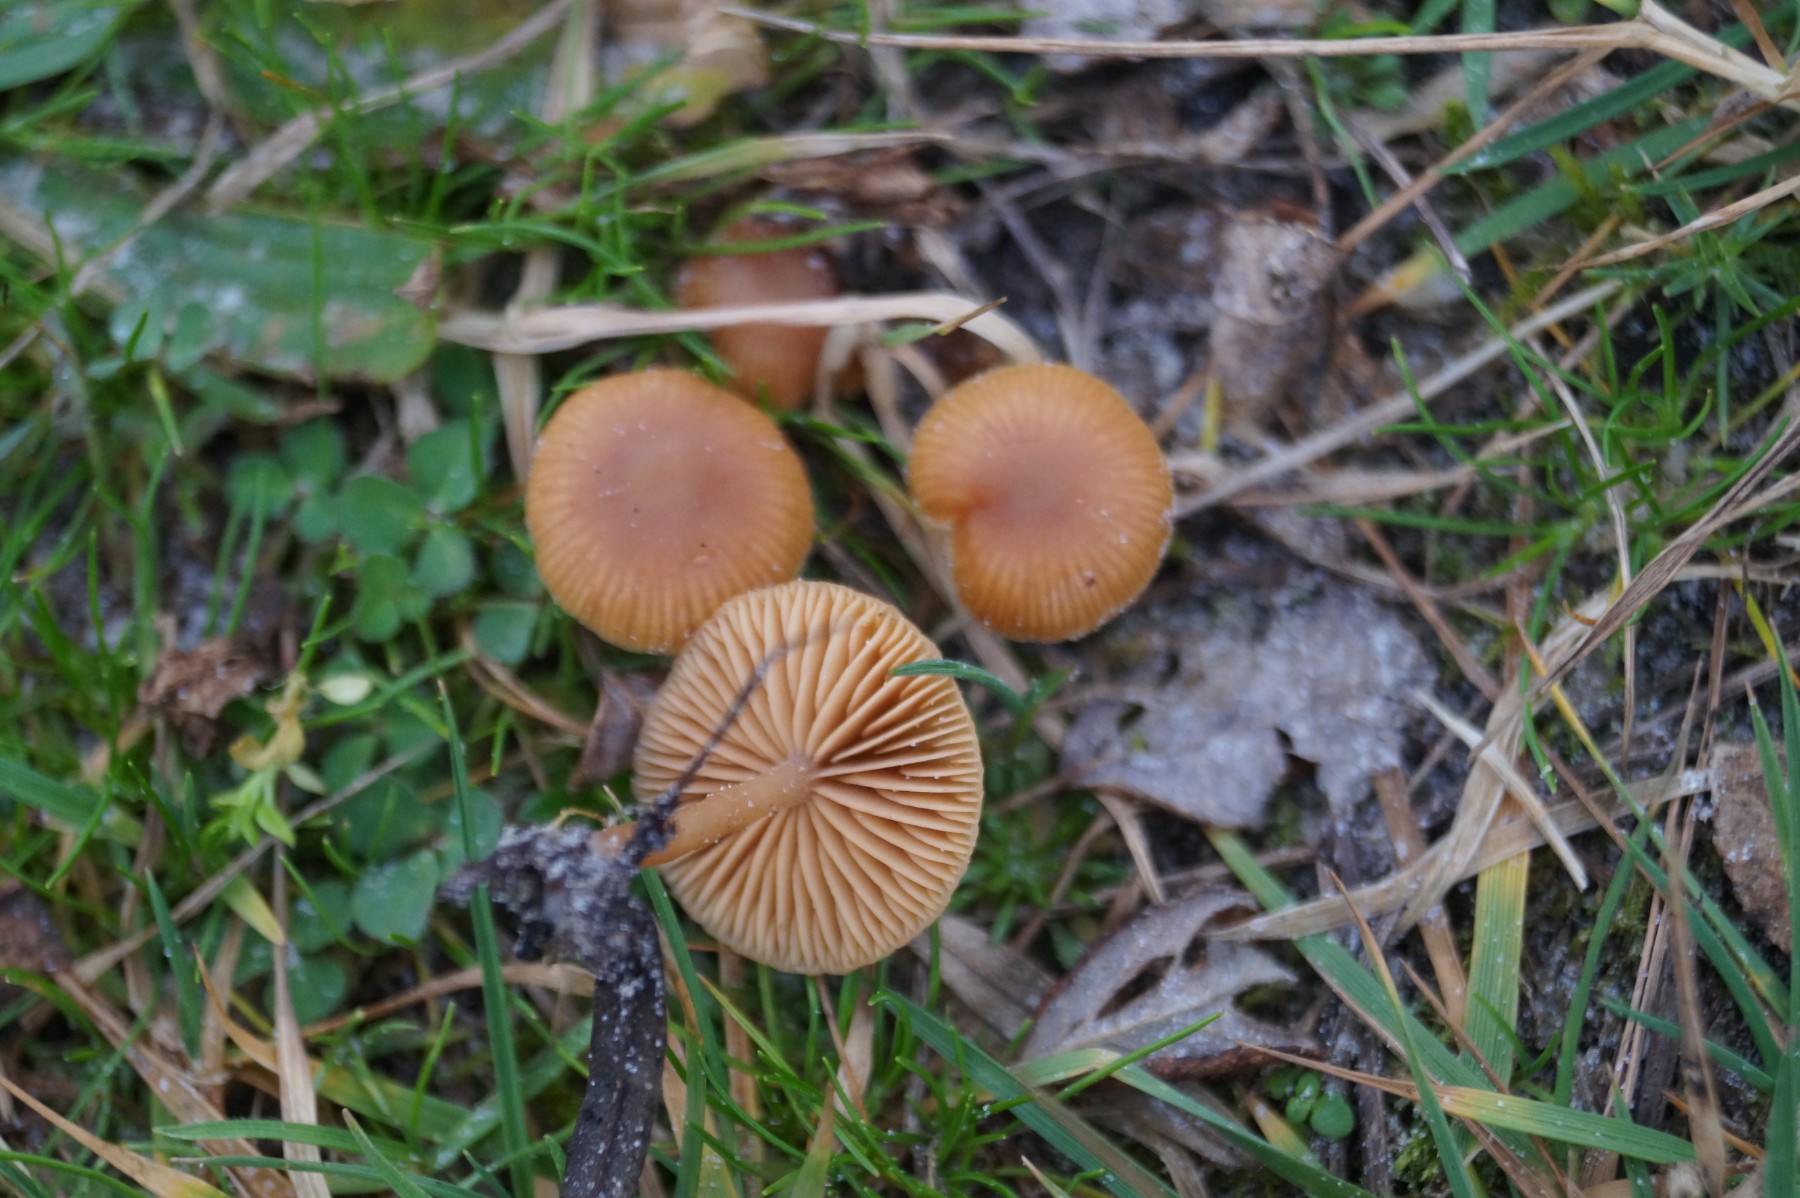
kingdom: Fungi
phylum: Basidiomycota
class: Agaricomycetes
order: Agaricales
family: Tubariaceae
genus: Tubaria
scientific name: Tubaria furfuracea
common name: kliddet fnughat
